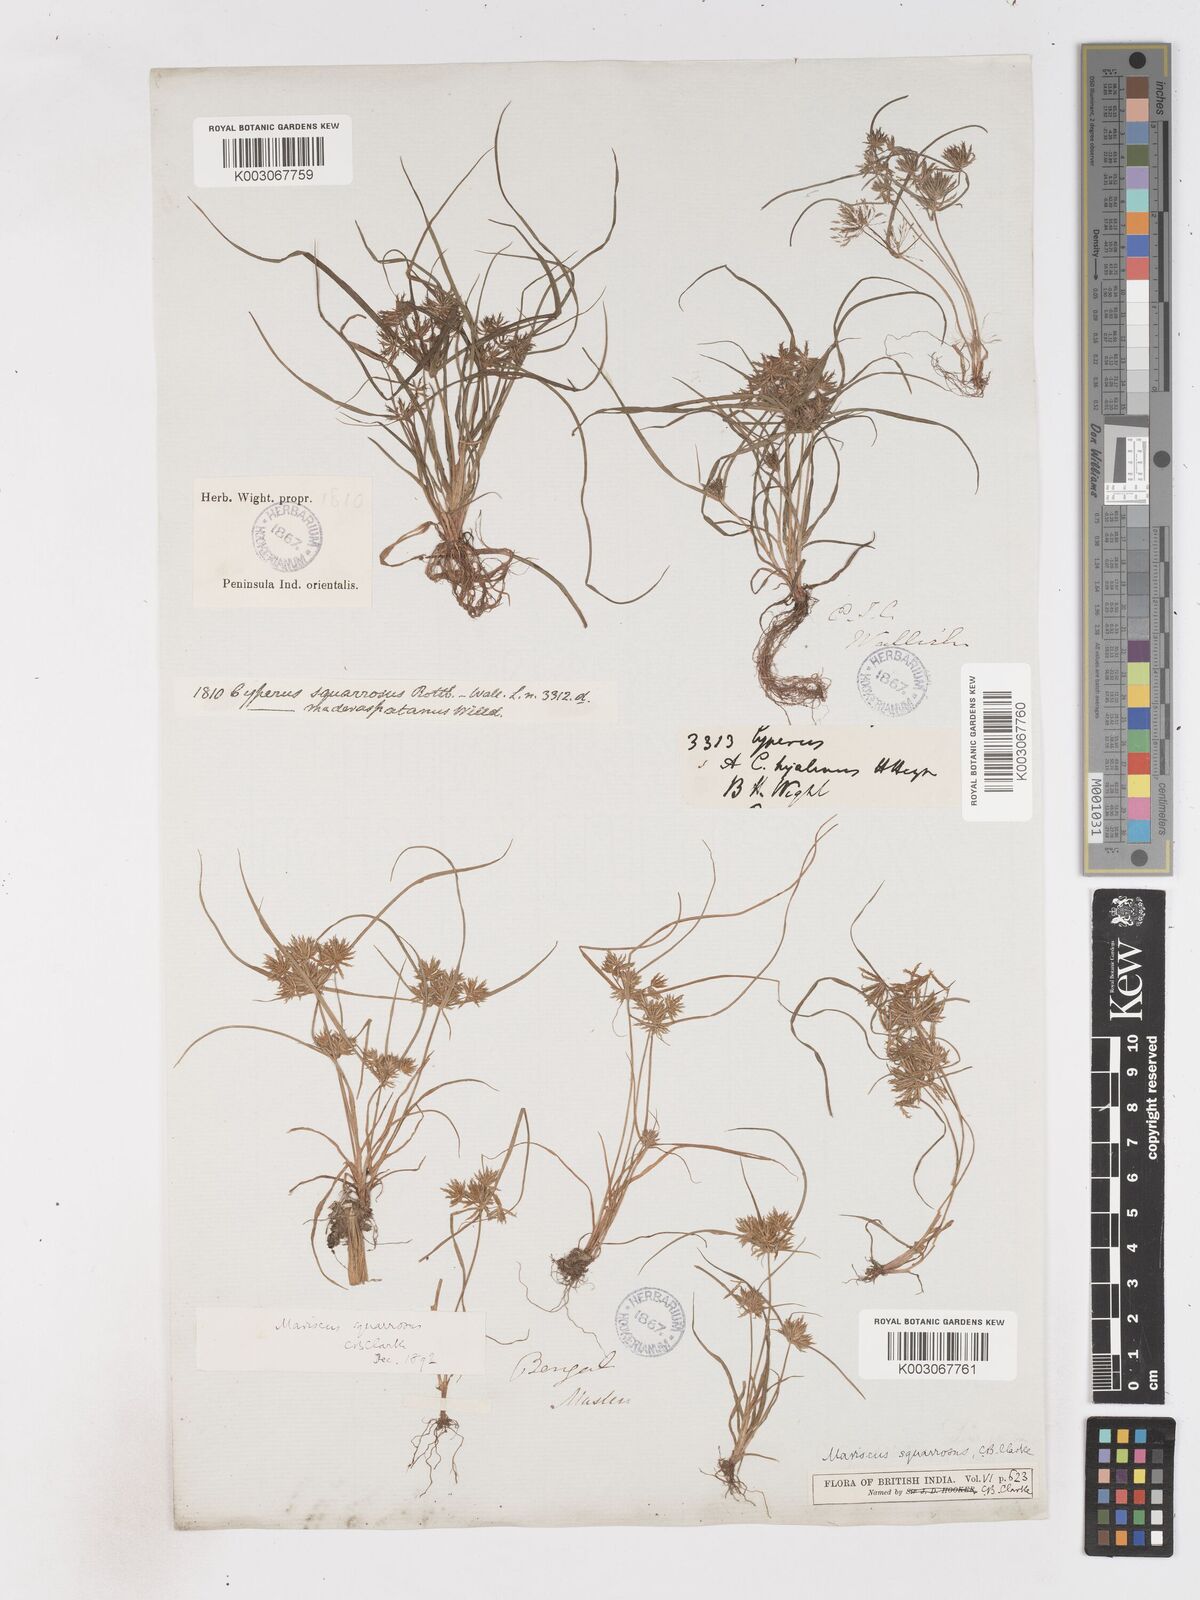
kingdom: Plantae
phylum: Tracheophyta
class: Liliopsida
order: Poales
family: Cyperaceae
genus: Cyperus
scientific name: Cyperus maderaspatanus
